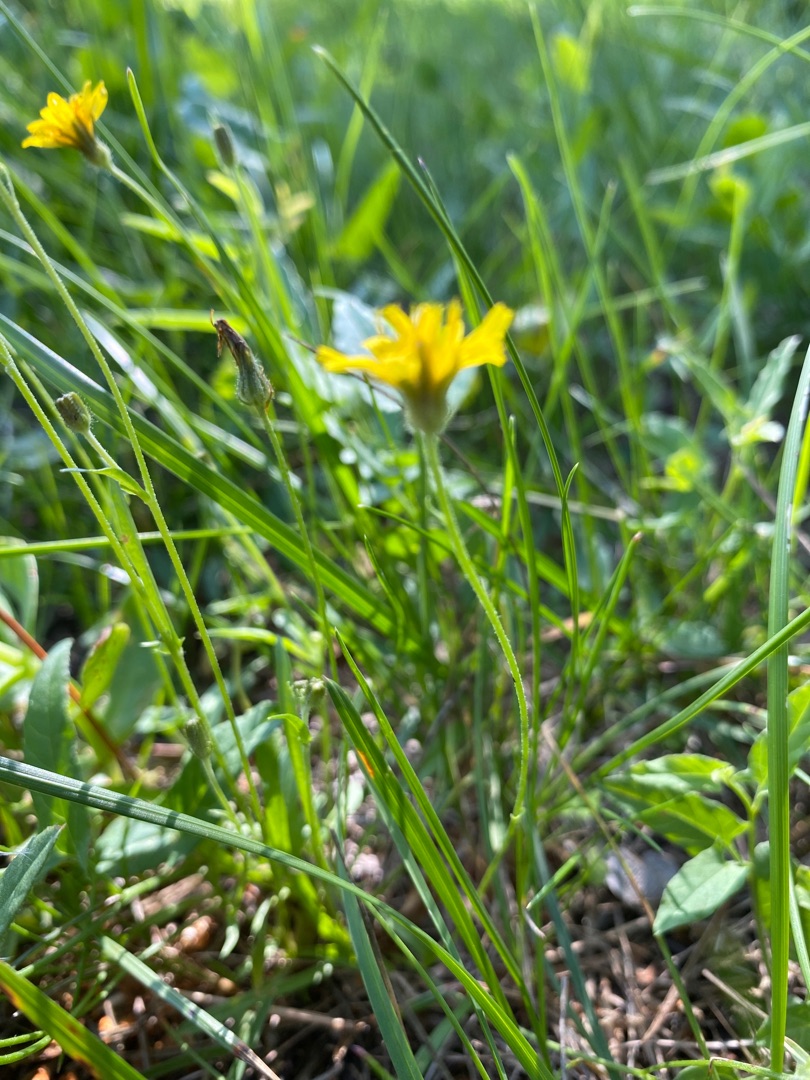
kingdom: Plantae
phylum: Tracheophyta
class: Magnoliopsida
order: Asterales
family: Asteraceae
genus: Crepis
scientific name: Crepis capillaris
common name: Grøn høgeskæg
